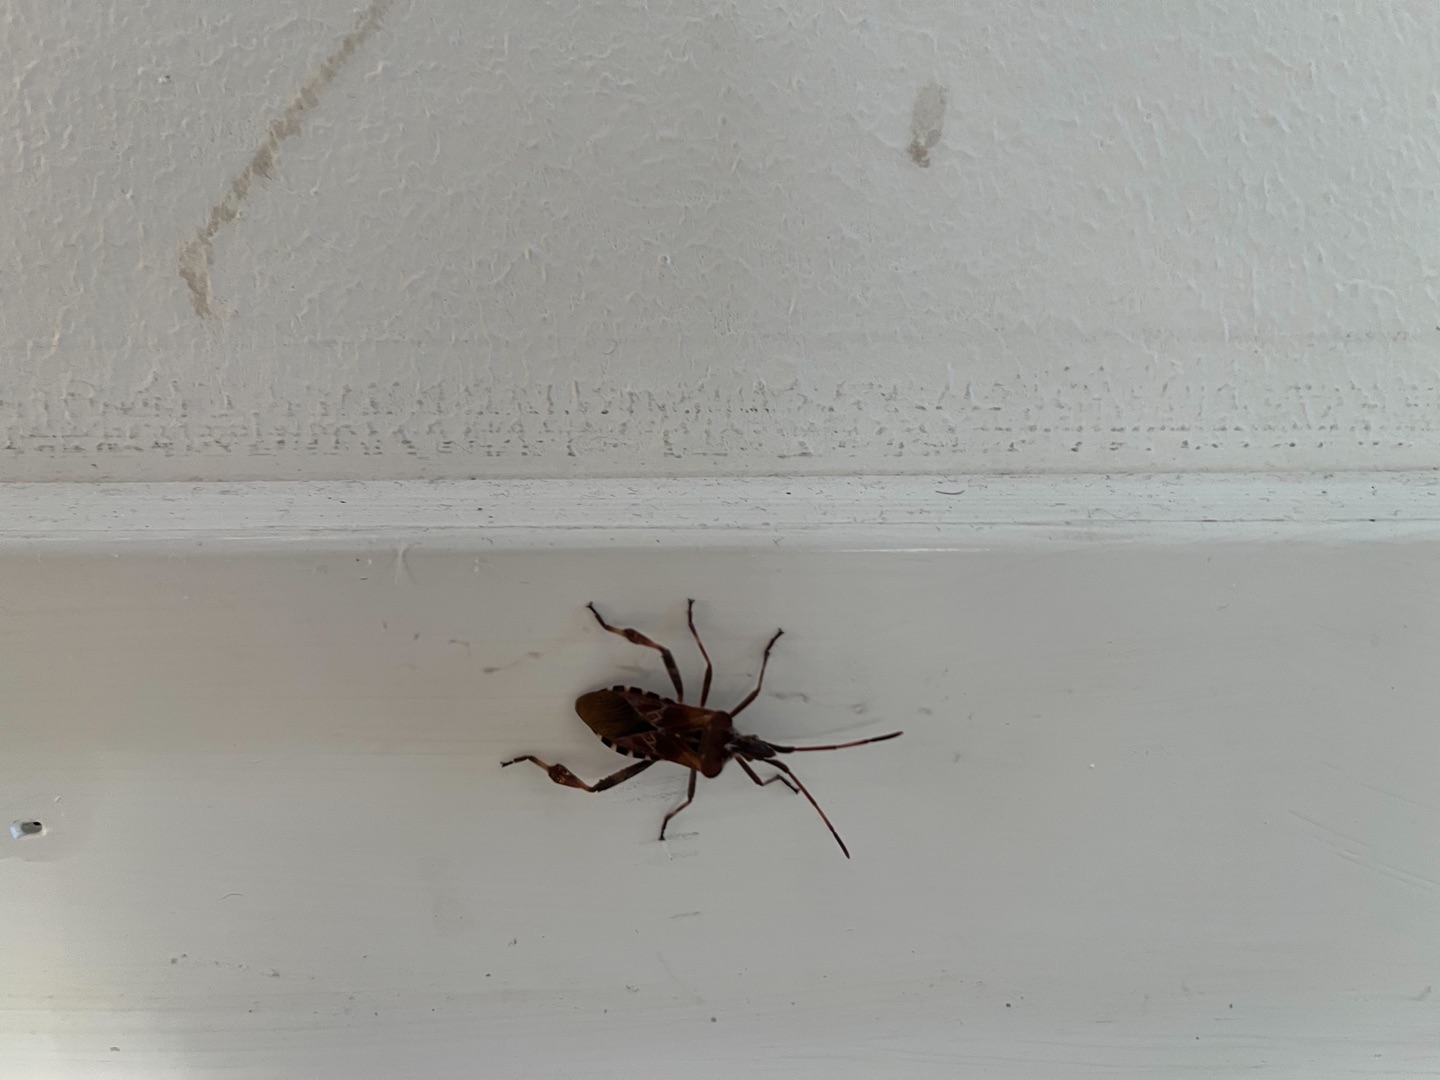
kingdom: Animalia
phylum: Arthropoda
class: Insecta
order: Hemiptera
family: Coreidae
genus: Leptoglossus
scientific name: Leptoglossus occidentalis
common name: Amerikansk fyrretæge
